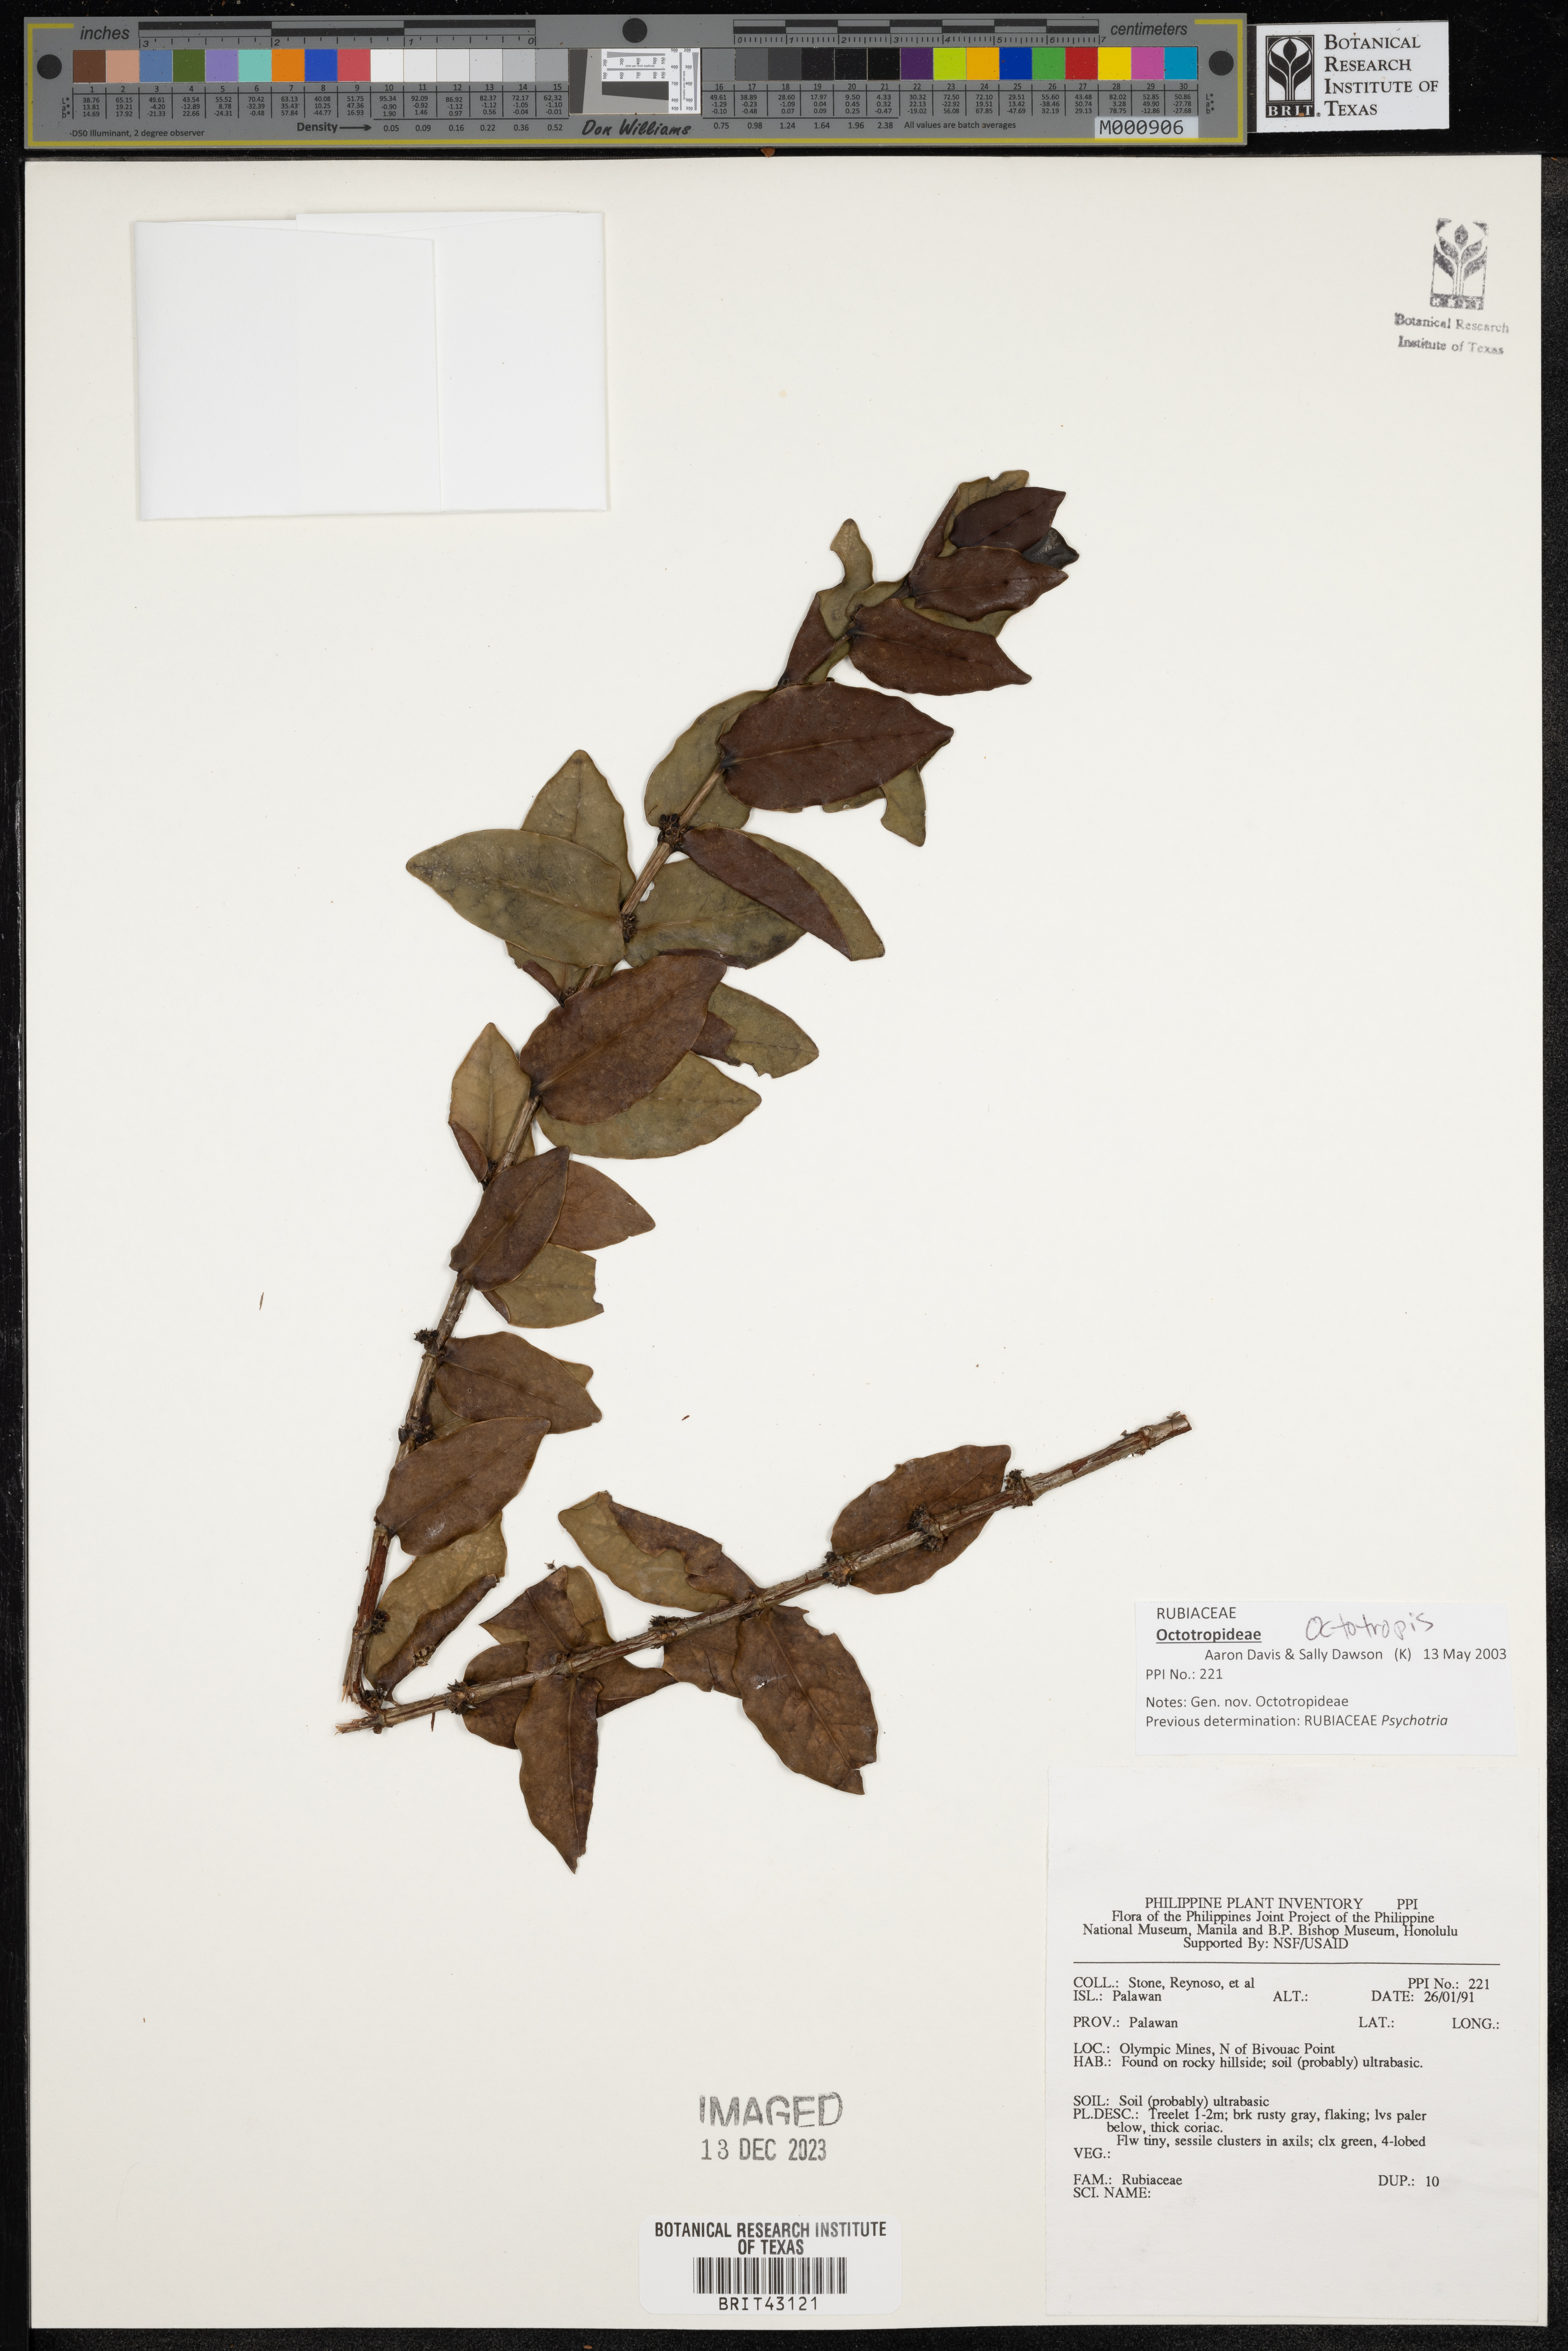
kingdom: Plantae
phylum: Tracheophyta
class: Magnoliopsida
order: Gentianales
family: Rubiaceae
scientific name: Rubiaceae
